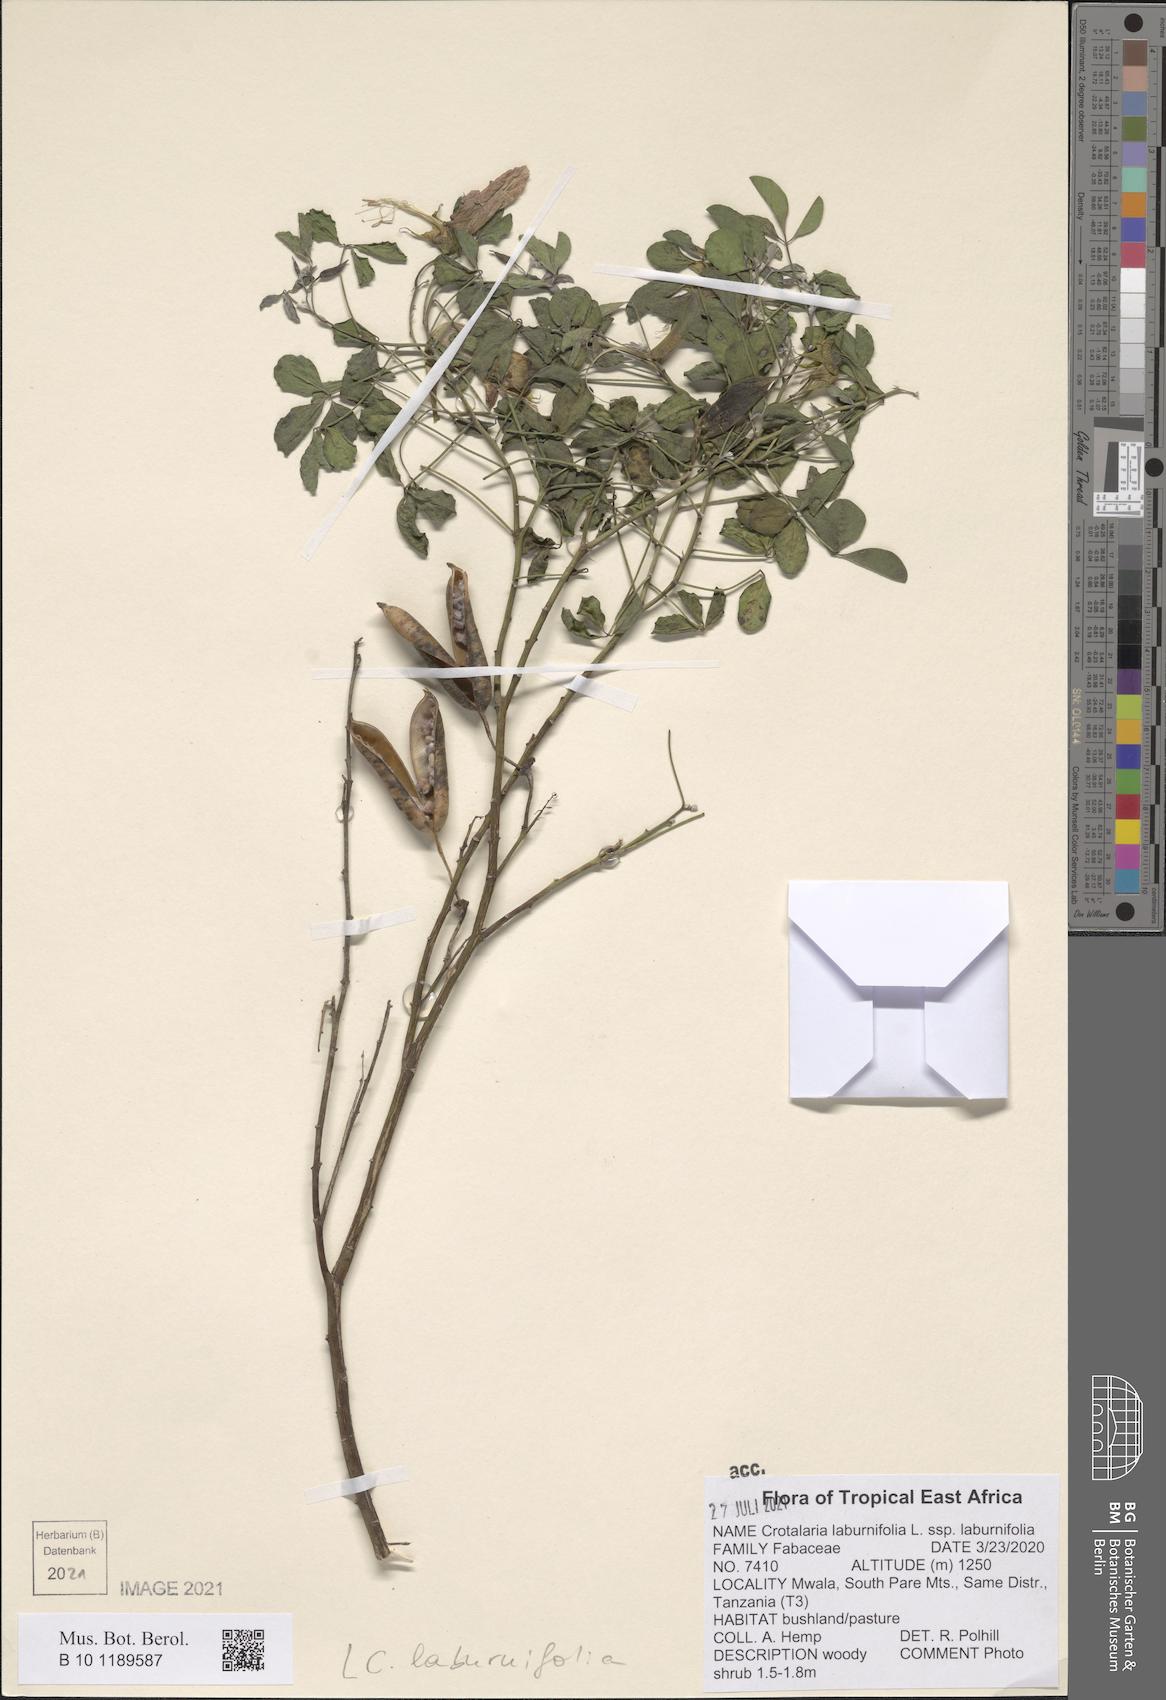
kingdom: Plantae
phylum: Tracheophyta
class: Magnoliopsida
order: Fabales
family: Fabaceae
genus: Crotalaria
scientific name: Crotalaria laburnifolia
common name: Birdflower
